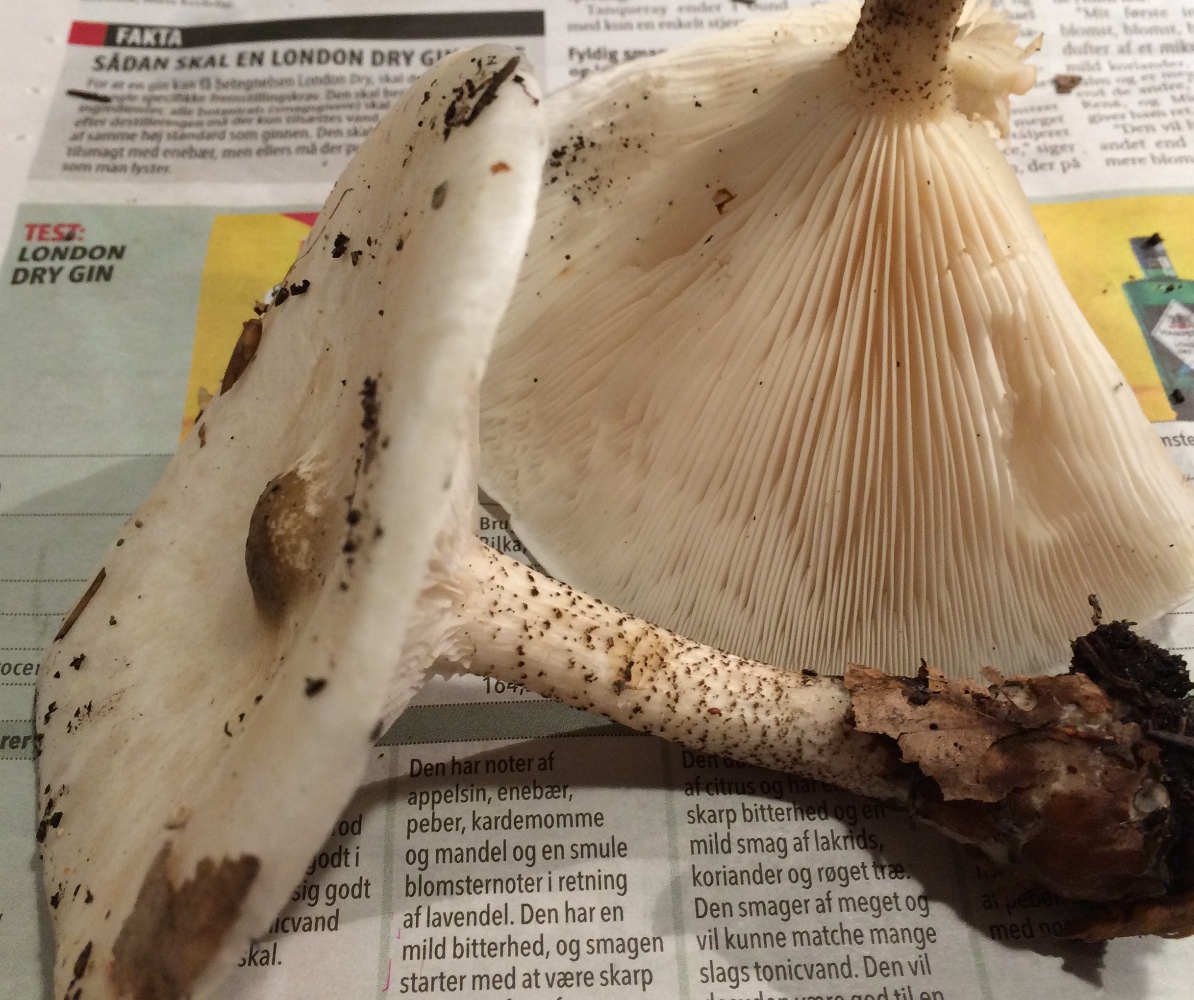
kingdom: Fungi
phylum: Basidiomycota
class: Agaricomycetes
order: Agaricales
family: Tricholomataceae
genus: Melanoleuca
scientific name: Melanoleuca verrucipes
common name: rufodet munkehat
